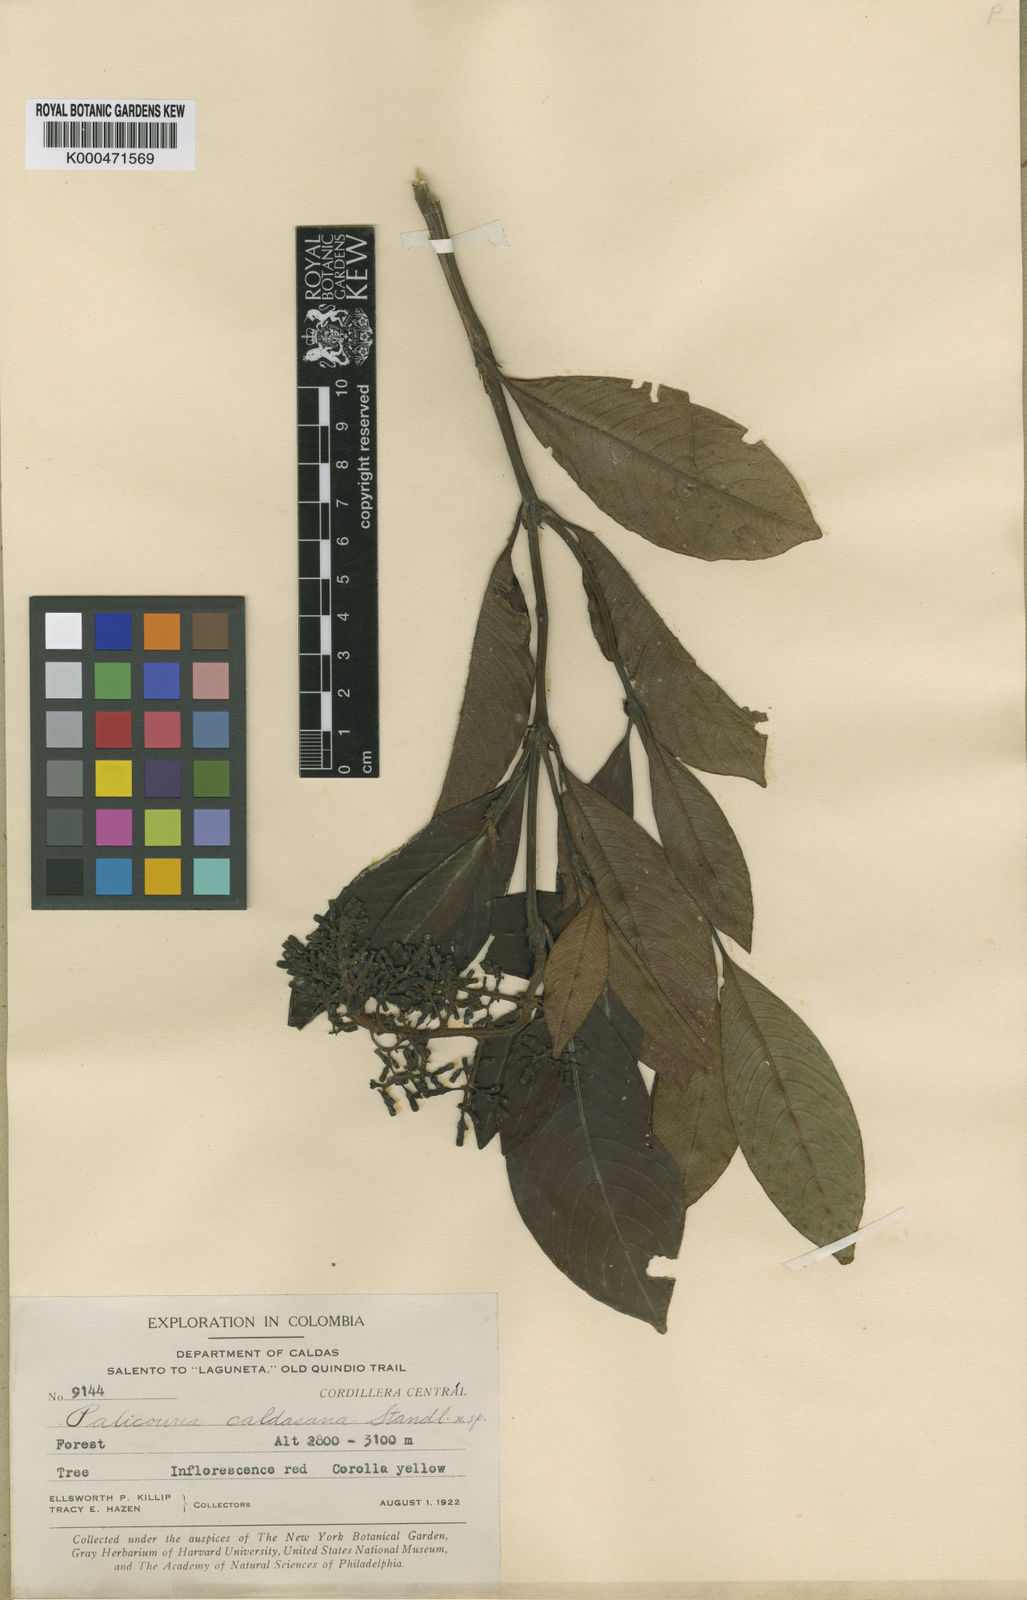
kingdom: Plantae
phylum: Tracheophyta
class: Magnoliopsida
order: Gentianales
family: Rubiaceae
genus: Palicourea
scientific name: Palicourea demissa
